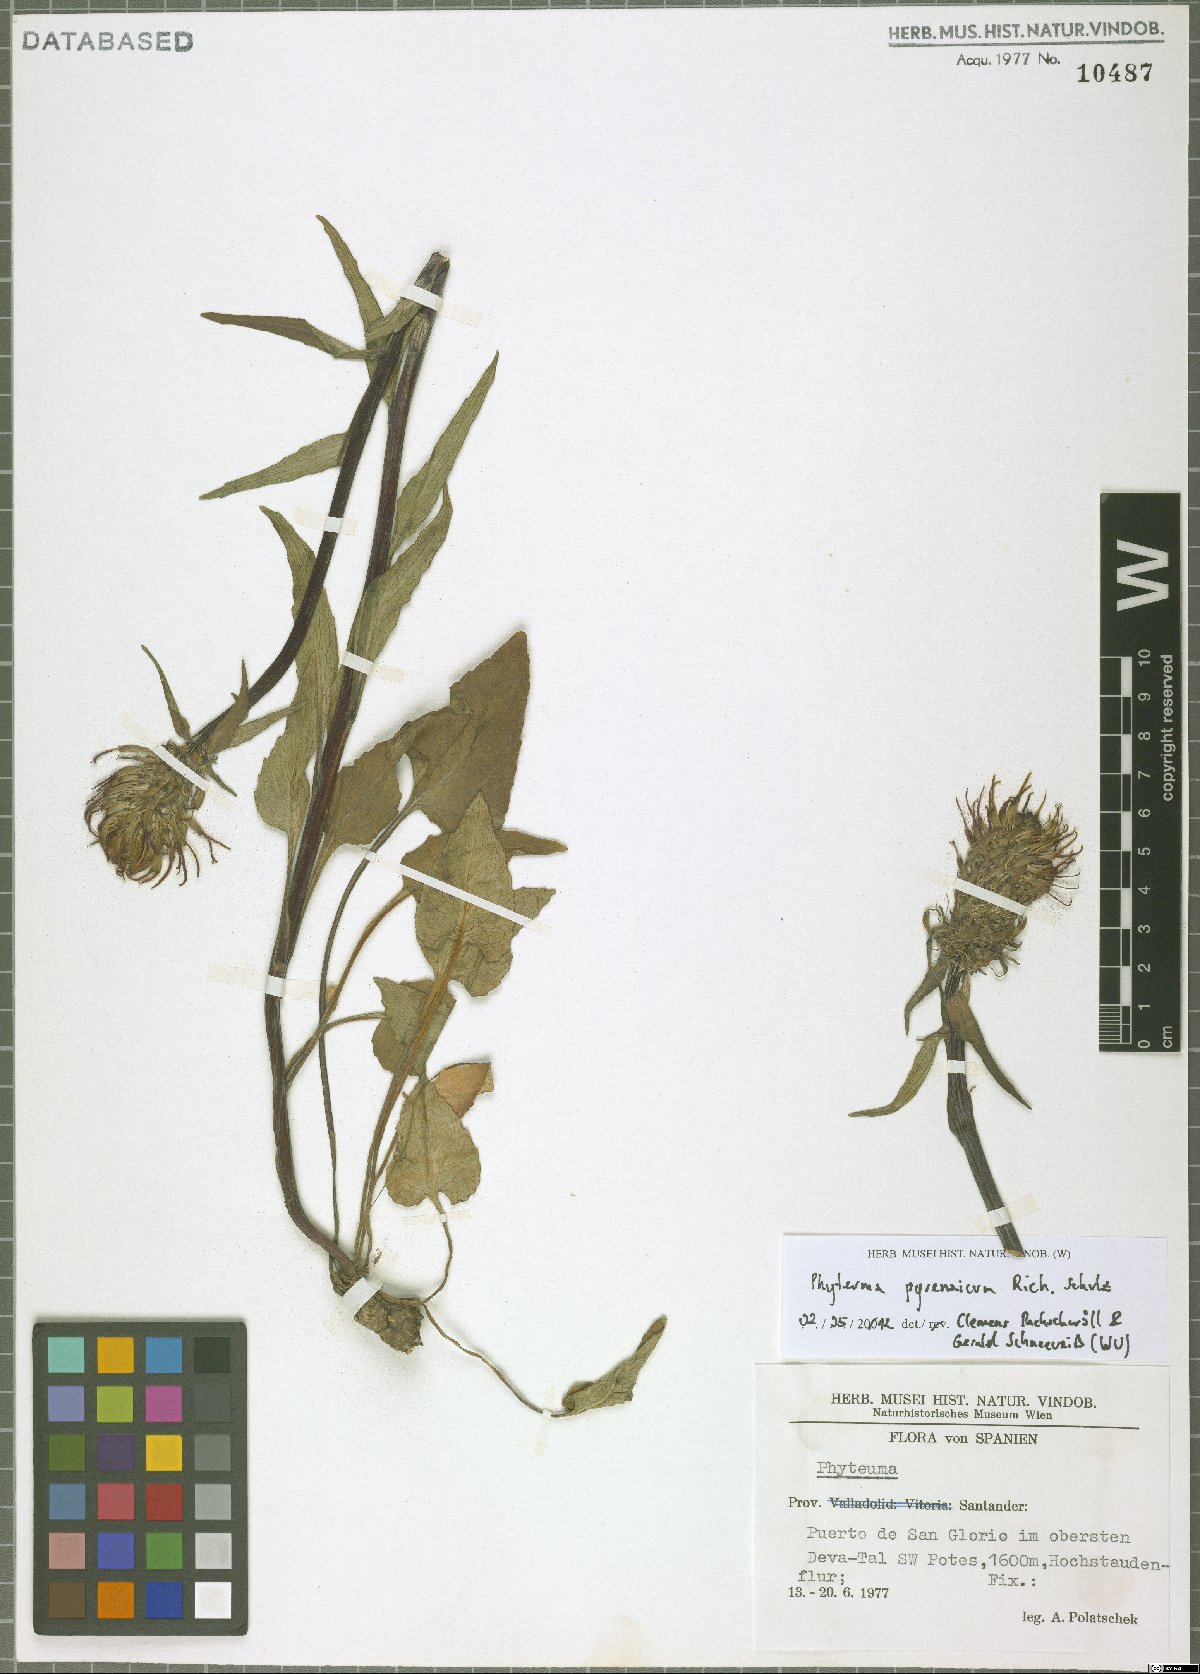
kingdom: Plantae
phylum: Tracheophyta
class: Magnoliopsida
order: Asterales
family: Campanulaceae
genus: Phyteuma
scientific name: Phyteuma spicatum
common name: Spiked rampion
